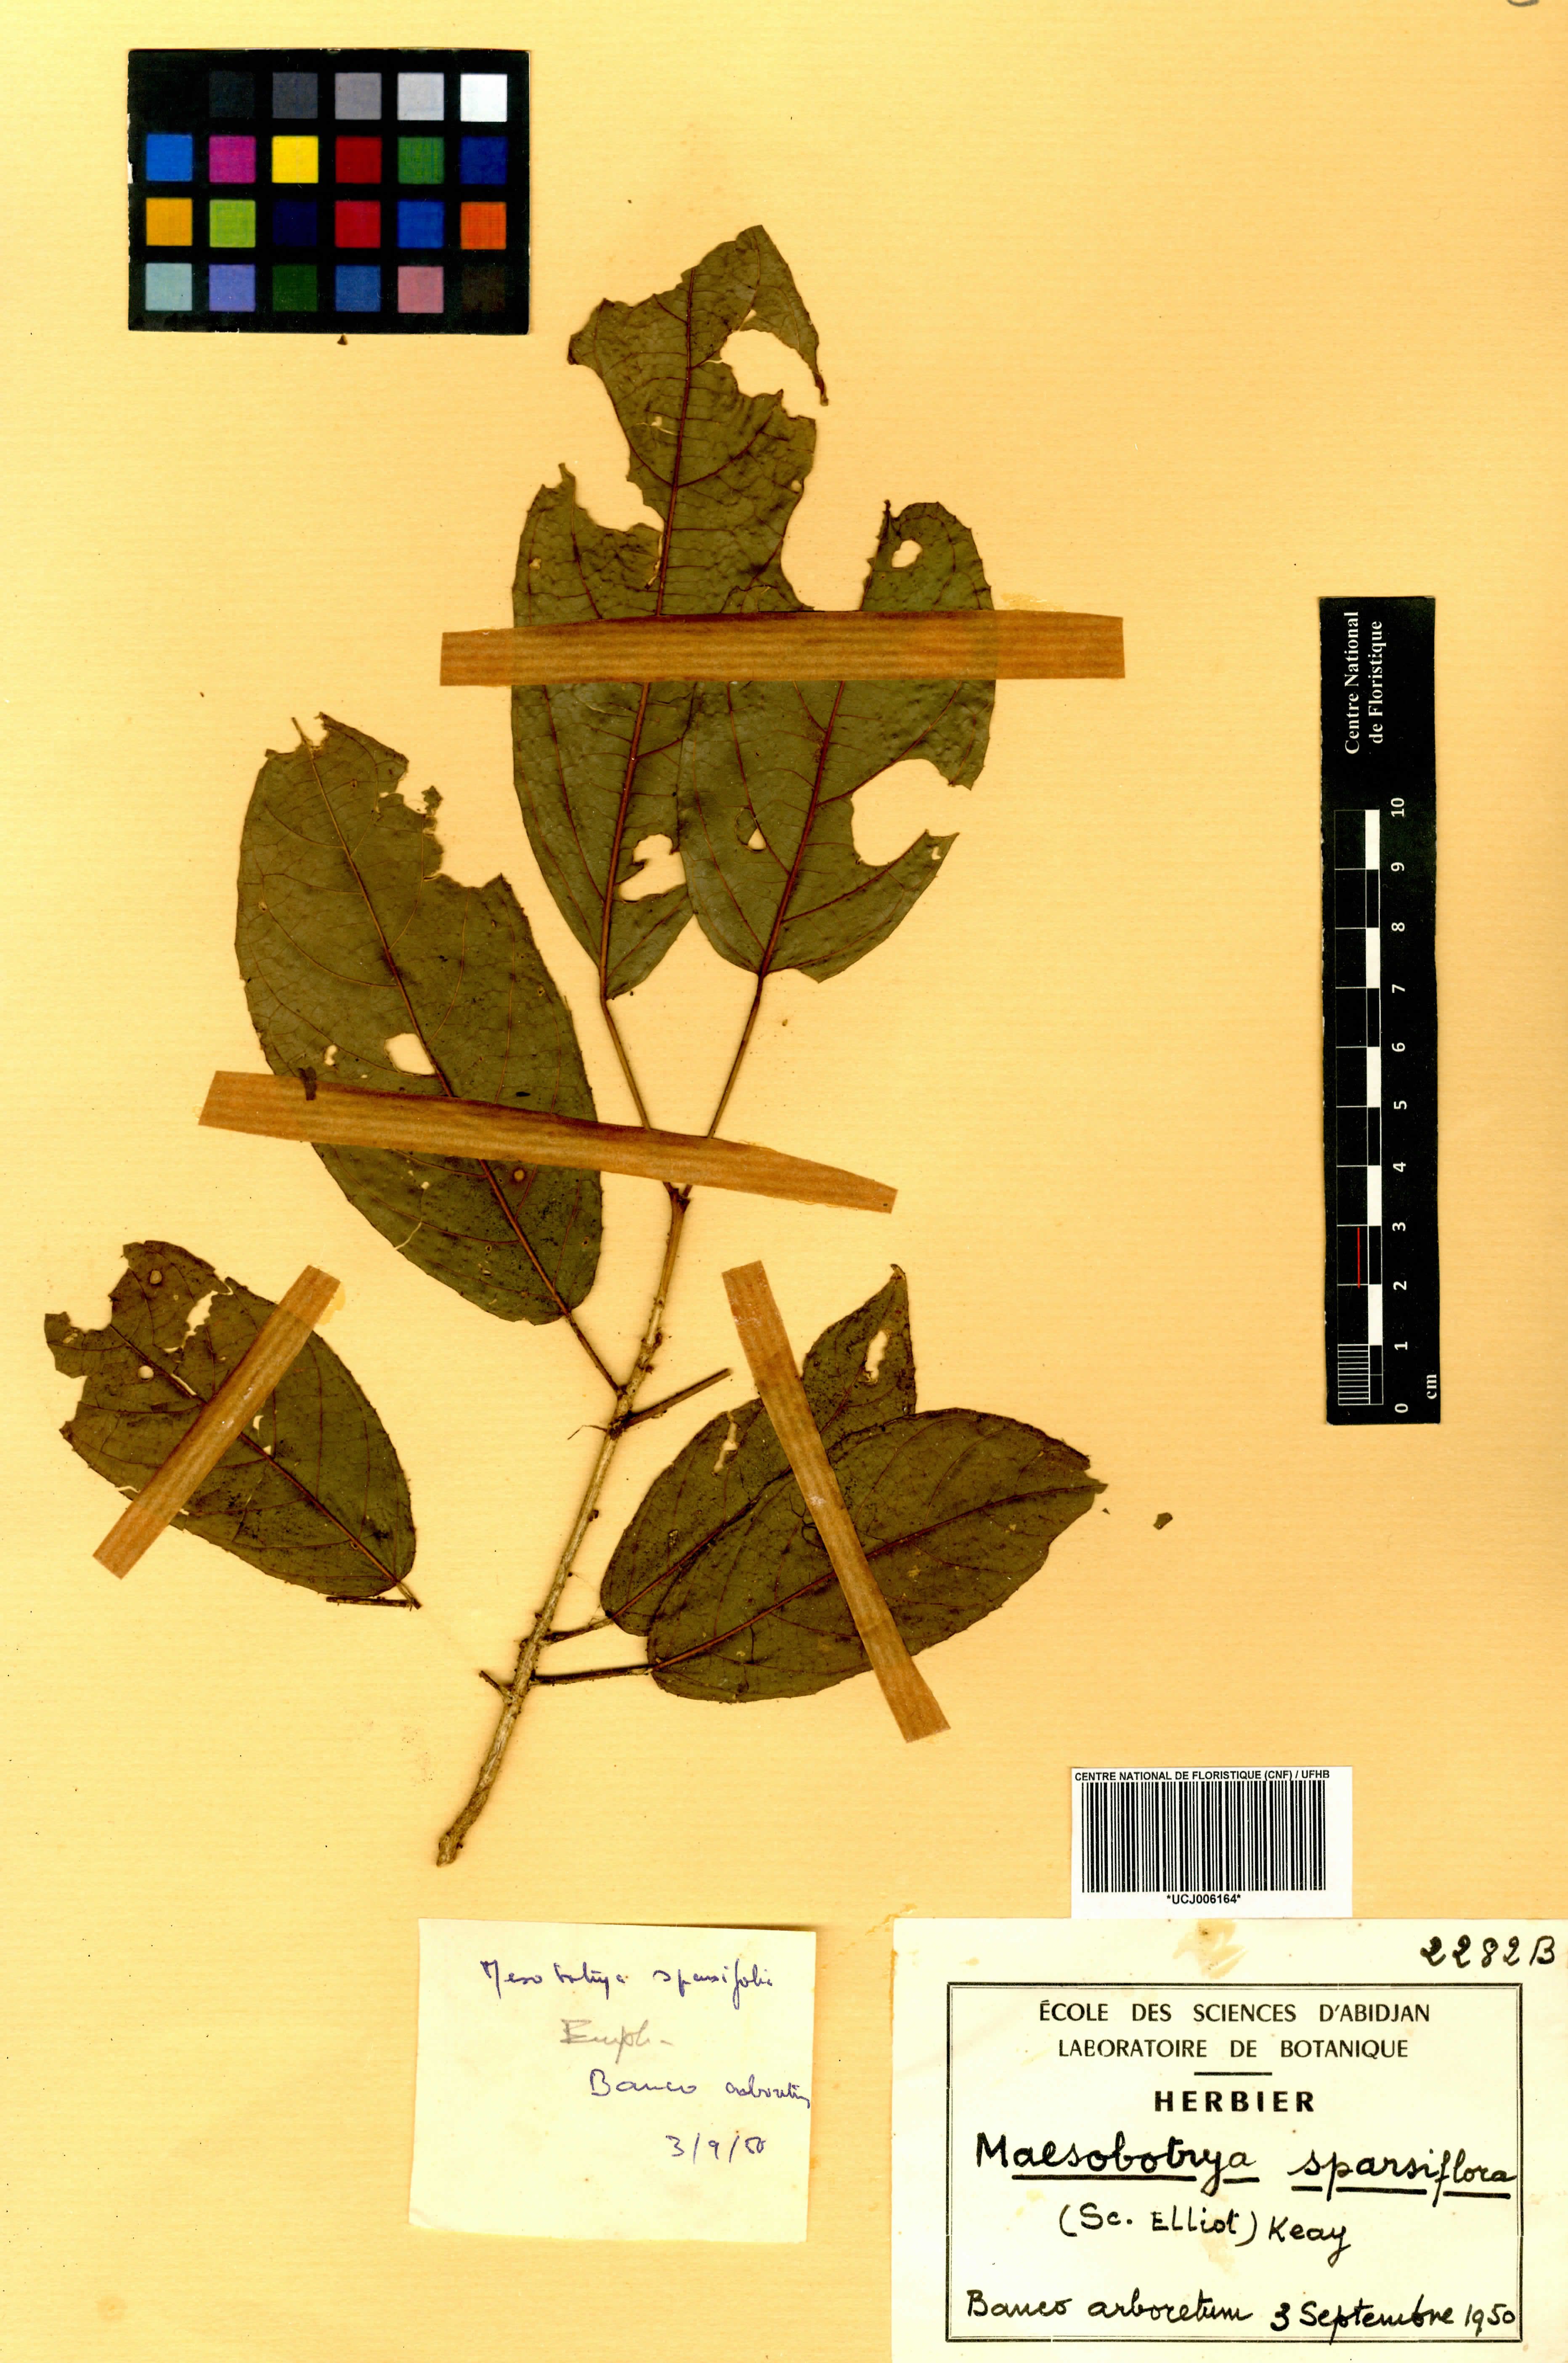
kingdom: Plantae
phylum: Tracheophyta
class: Magnoliopsida
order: Malpighiales
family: Euphorbiaceae
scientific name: Euphorbiaceae
